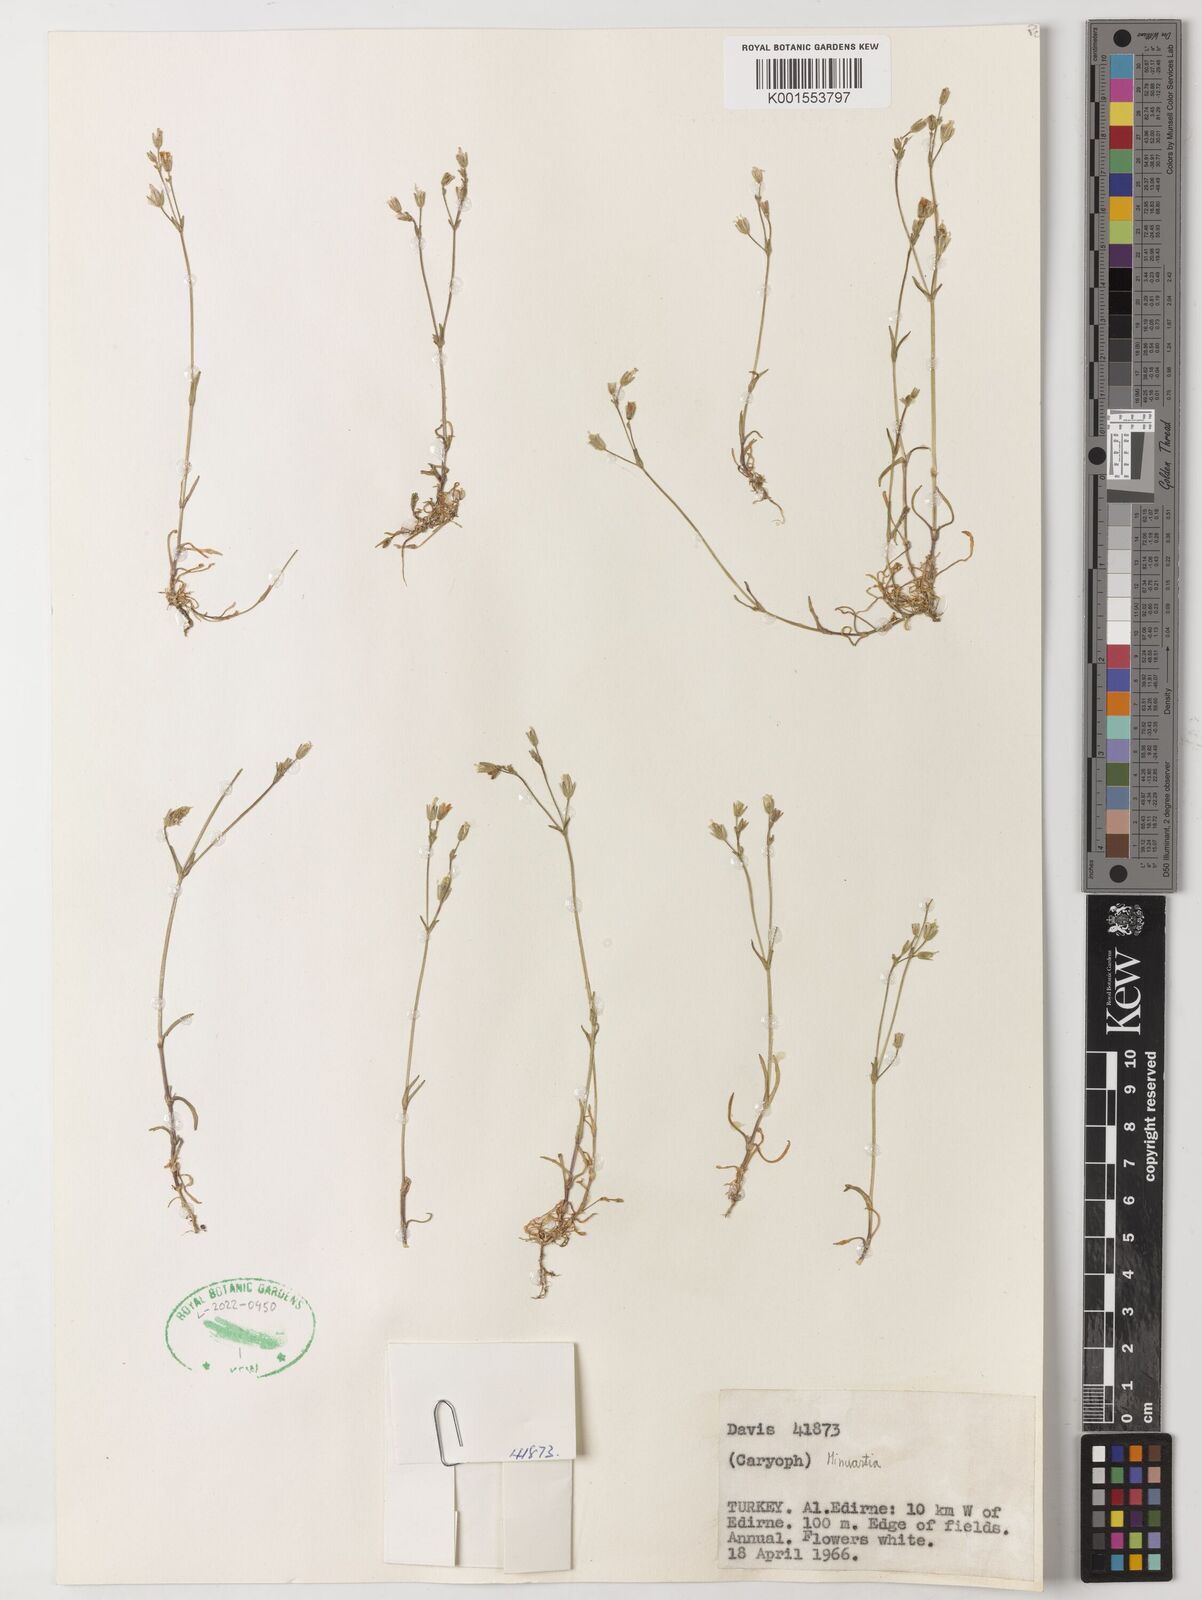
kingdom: Plantae
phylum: Tracheophyta
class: Magnoliopsida
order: Caryophyllales
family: Caryophyllaceae
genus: Minuartia
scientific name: Minuartia
